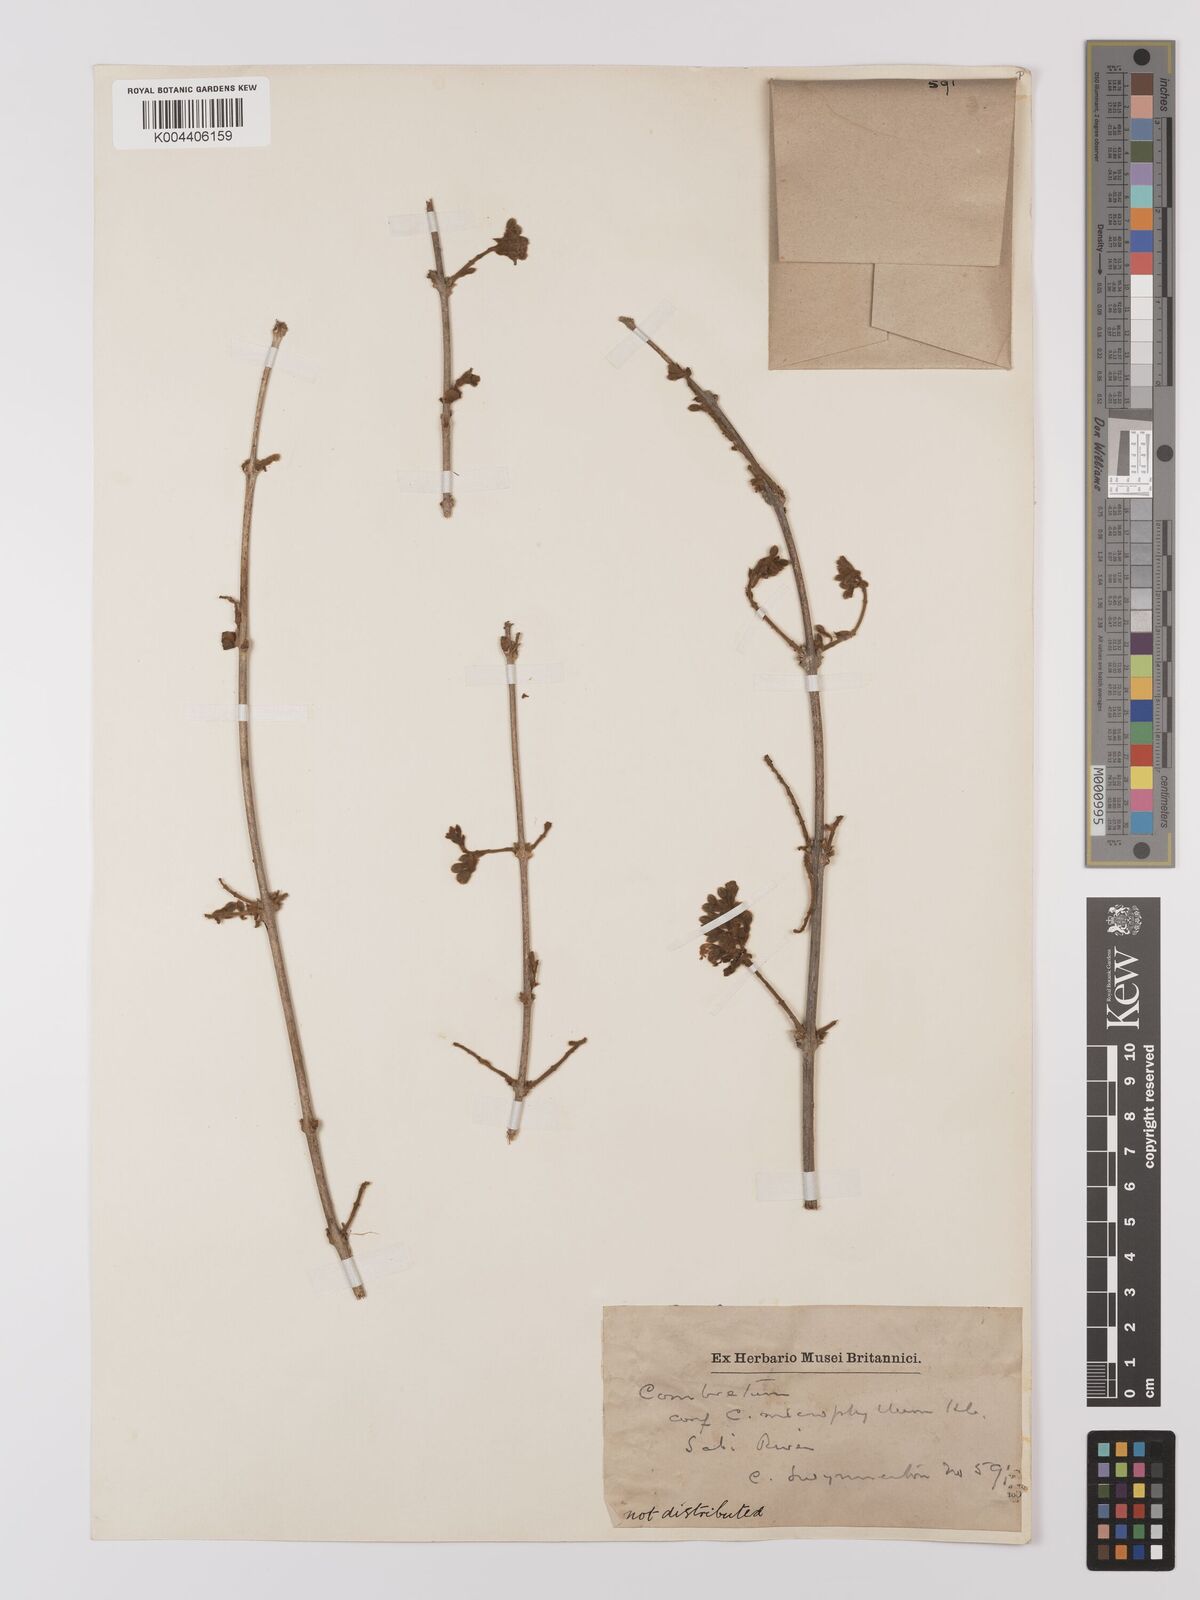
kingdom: Plantae
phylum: Tracheophyta
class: Magnoliopsida
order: Myrtales
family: Combretaceae
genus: Combretum
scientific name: Combretum
